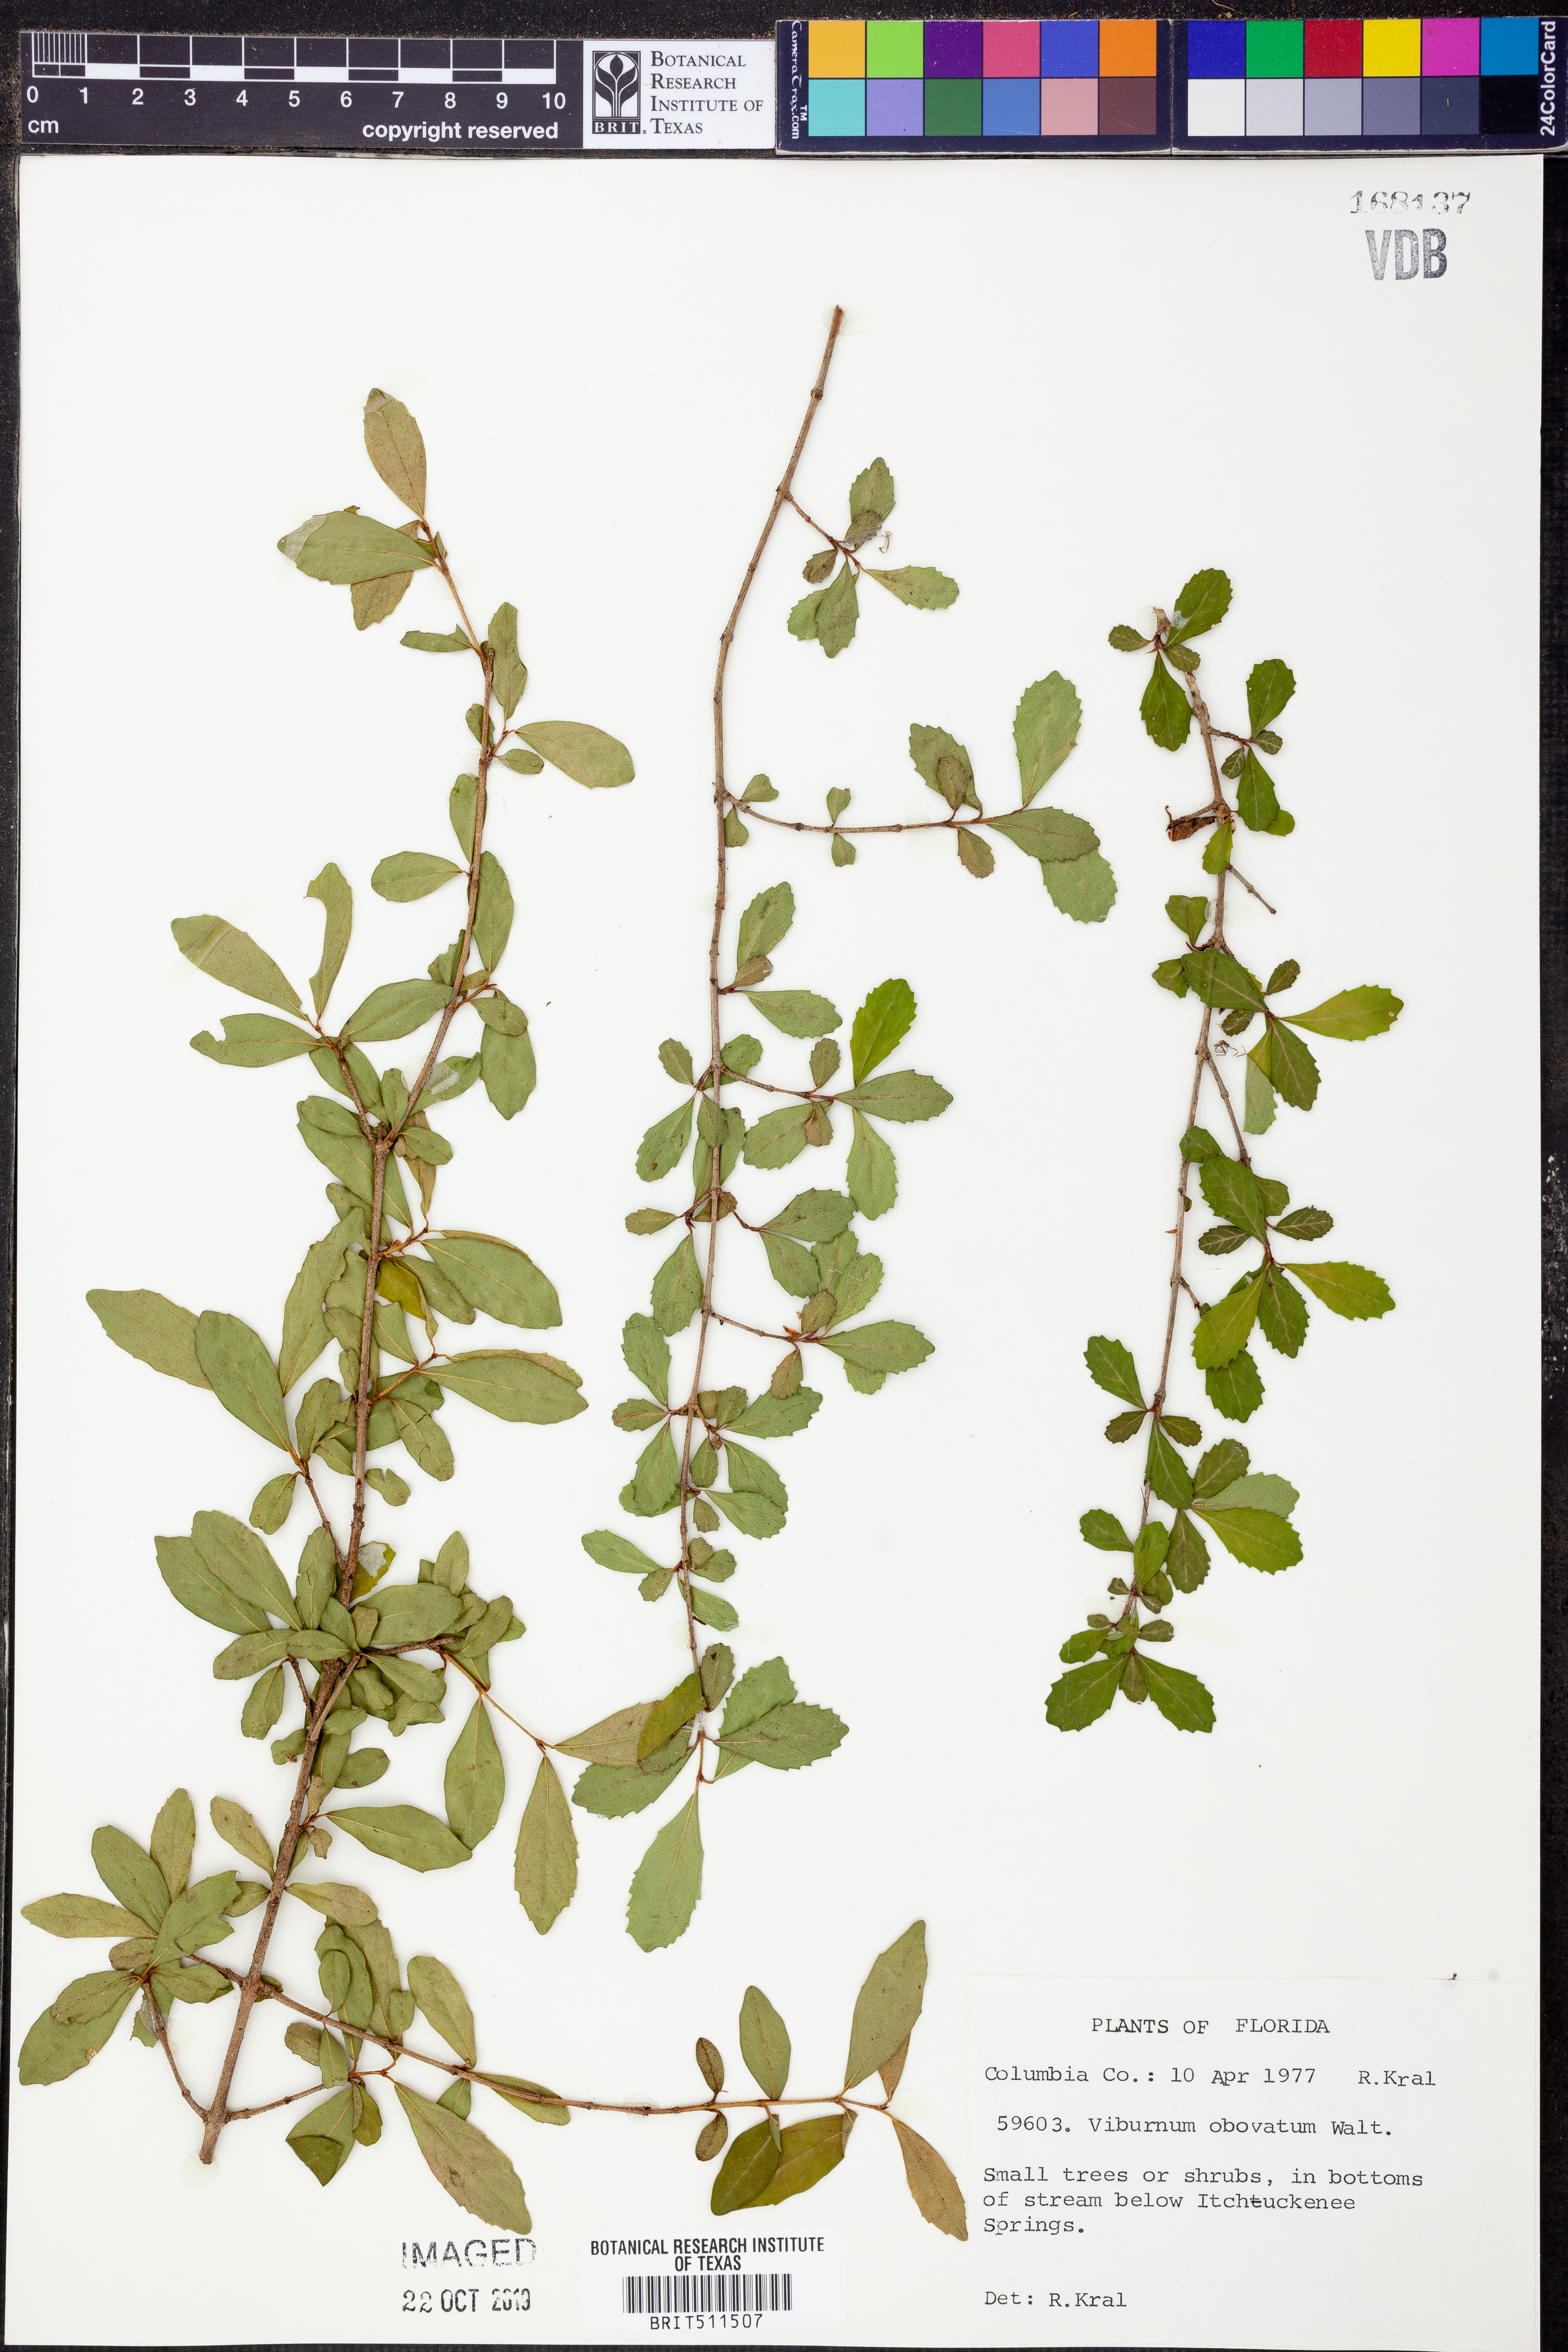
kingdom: Plantae
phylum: Tracheophyta
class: Magnoliopsida
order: Dipsacales
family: Viburnaceae
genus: Viburnum
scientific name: Viburnum obovatum
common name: Walter's viburnum
